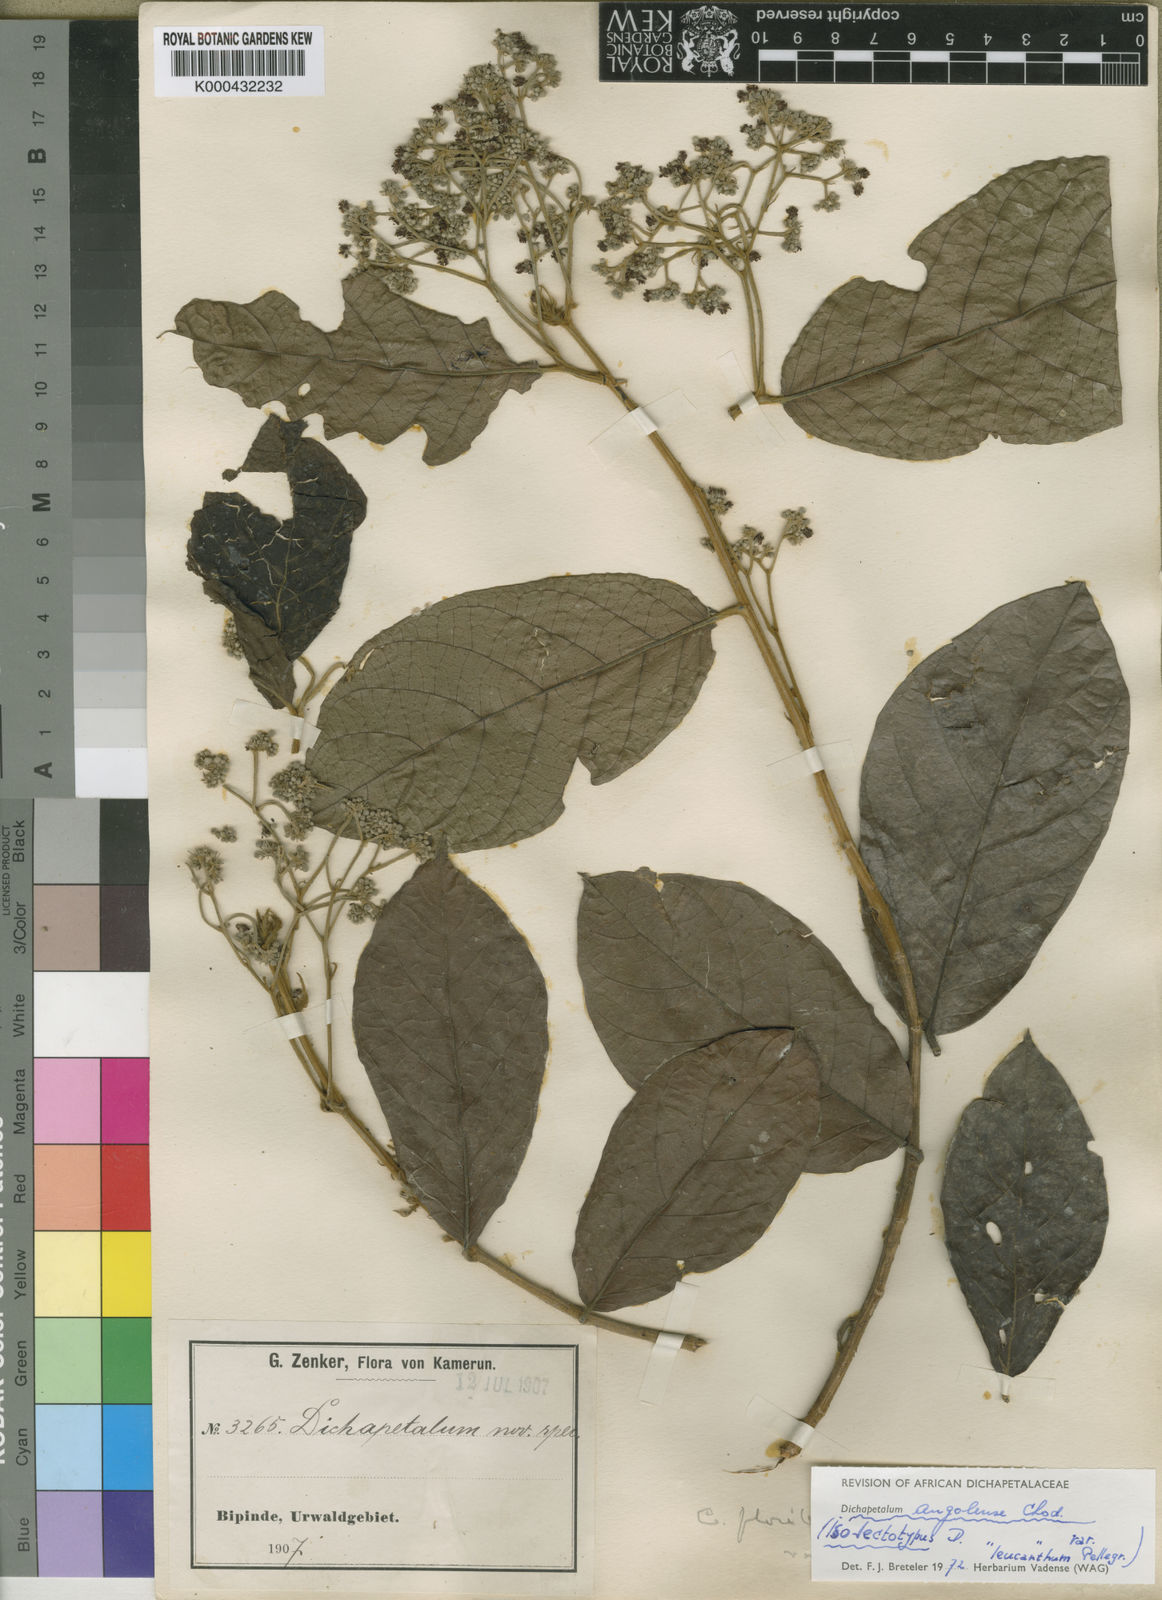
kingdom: Plantae
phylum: Tracheophyta
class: Magnoliopsida
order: Malpighiales
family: Dichapetalaceae
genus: Dichapetalum
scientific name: Dichapetalum angolense
